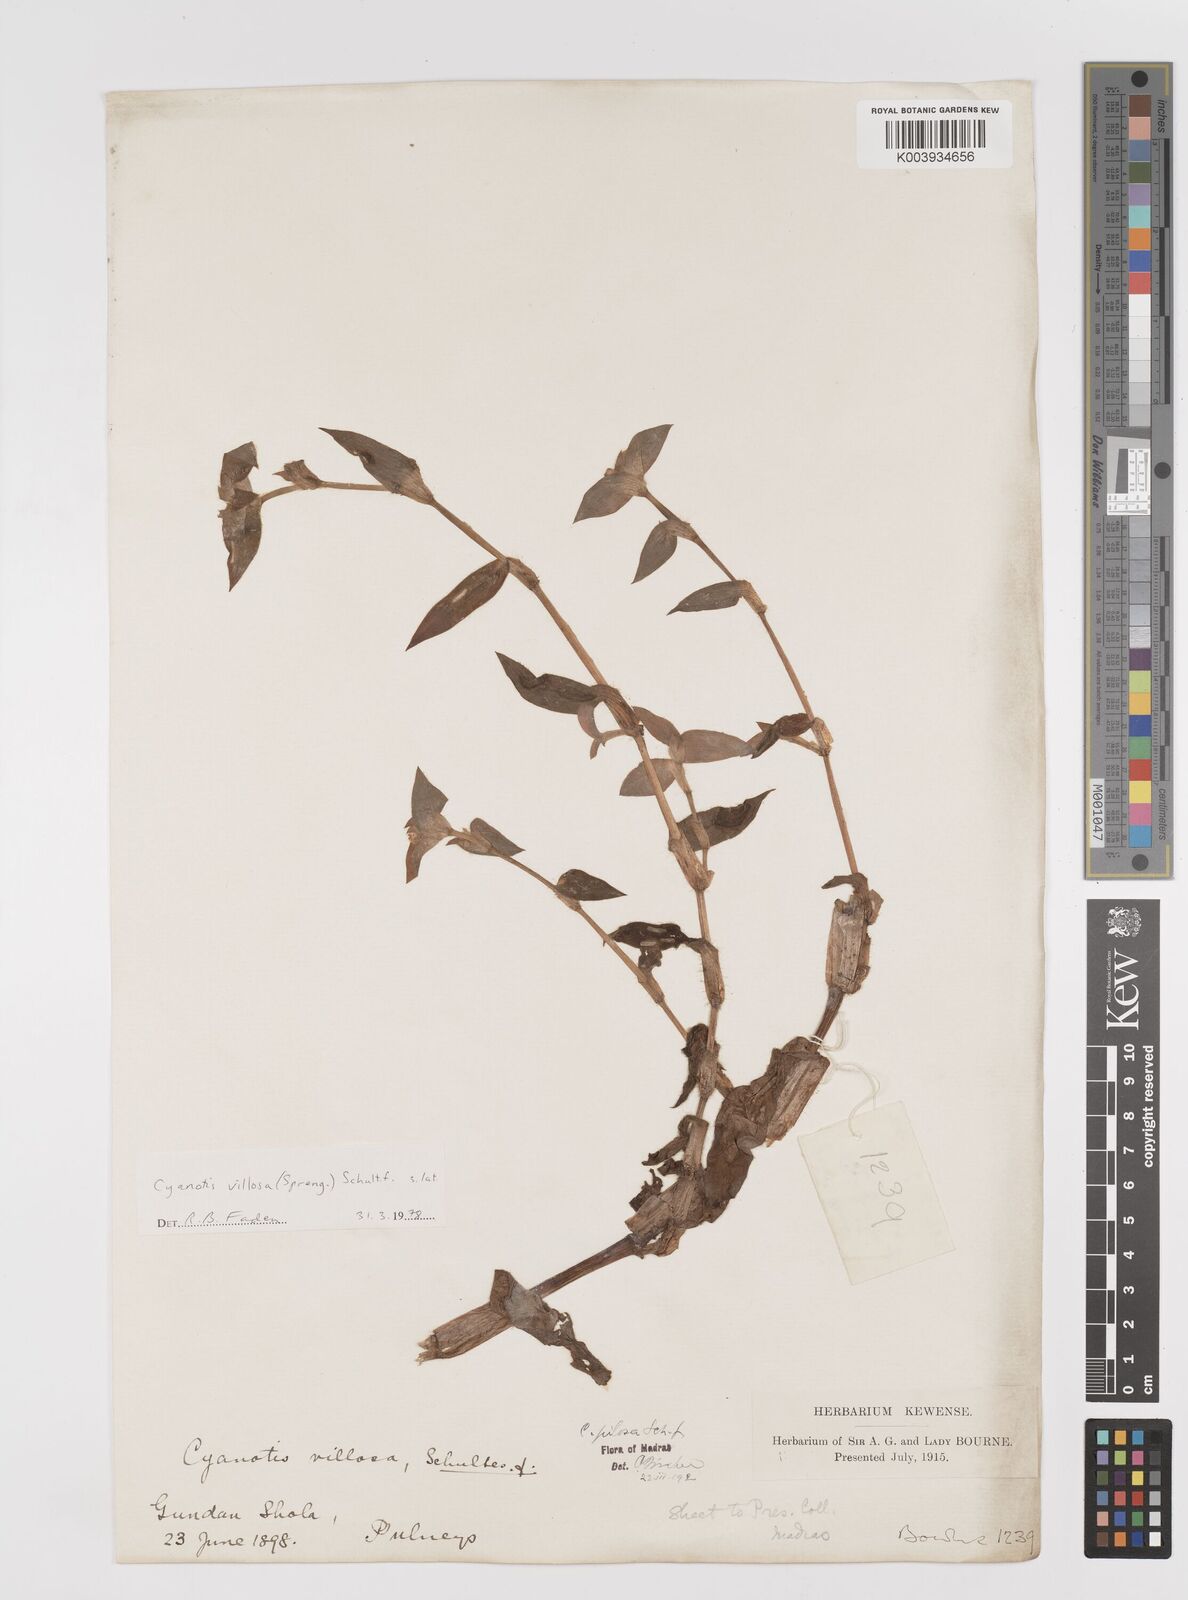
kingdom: Plantae
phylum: Tracheophyta
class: Liliopsida
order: Commelinales
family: Commelinaceae
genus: Cyanotis
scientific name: Cyanotis villosa
